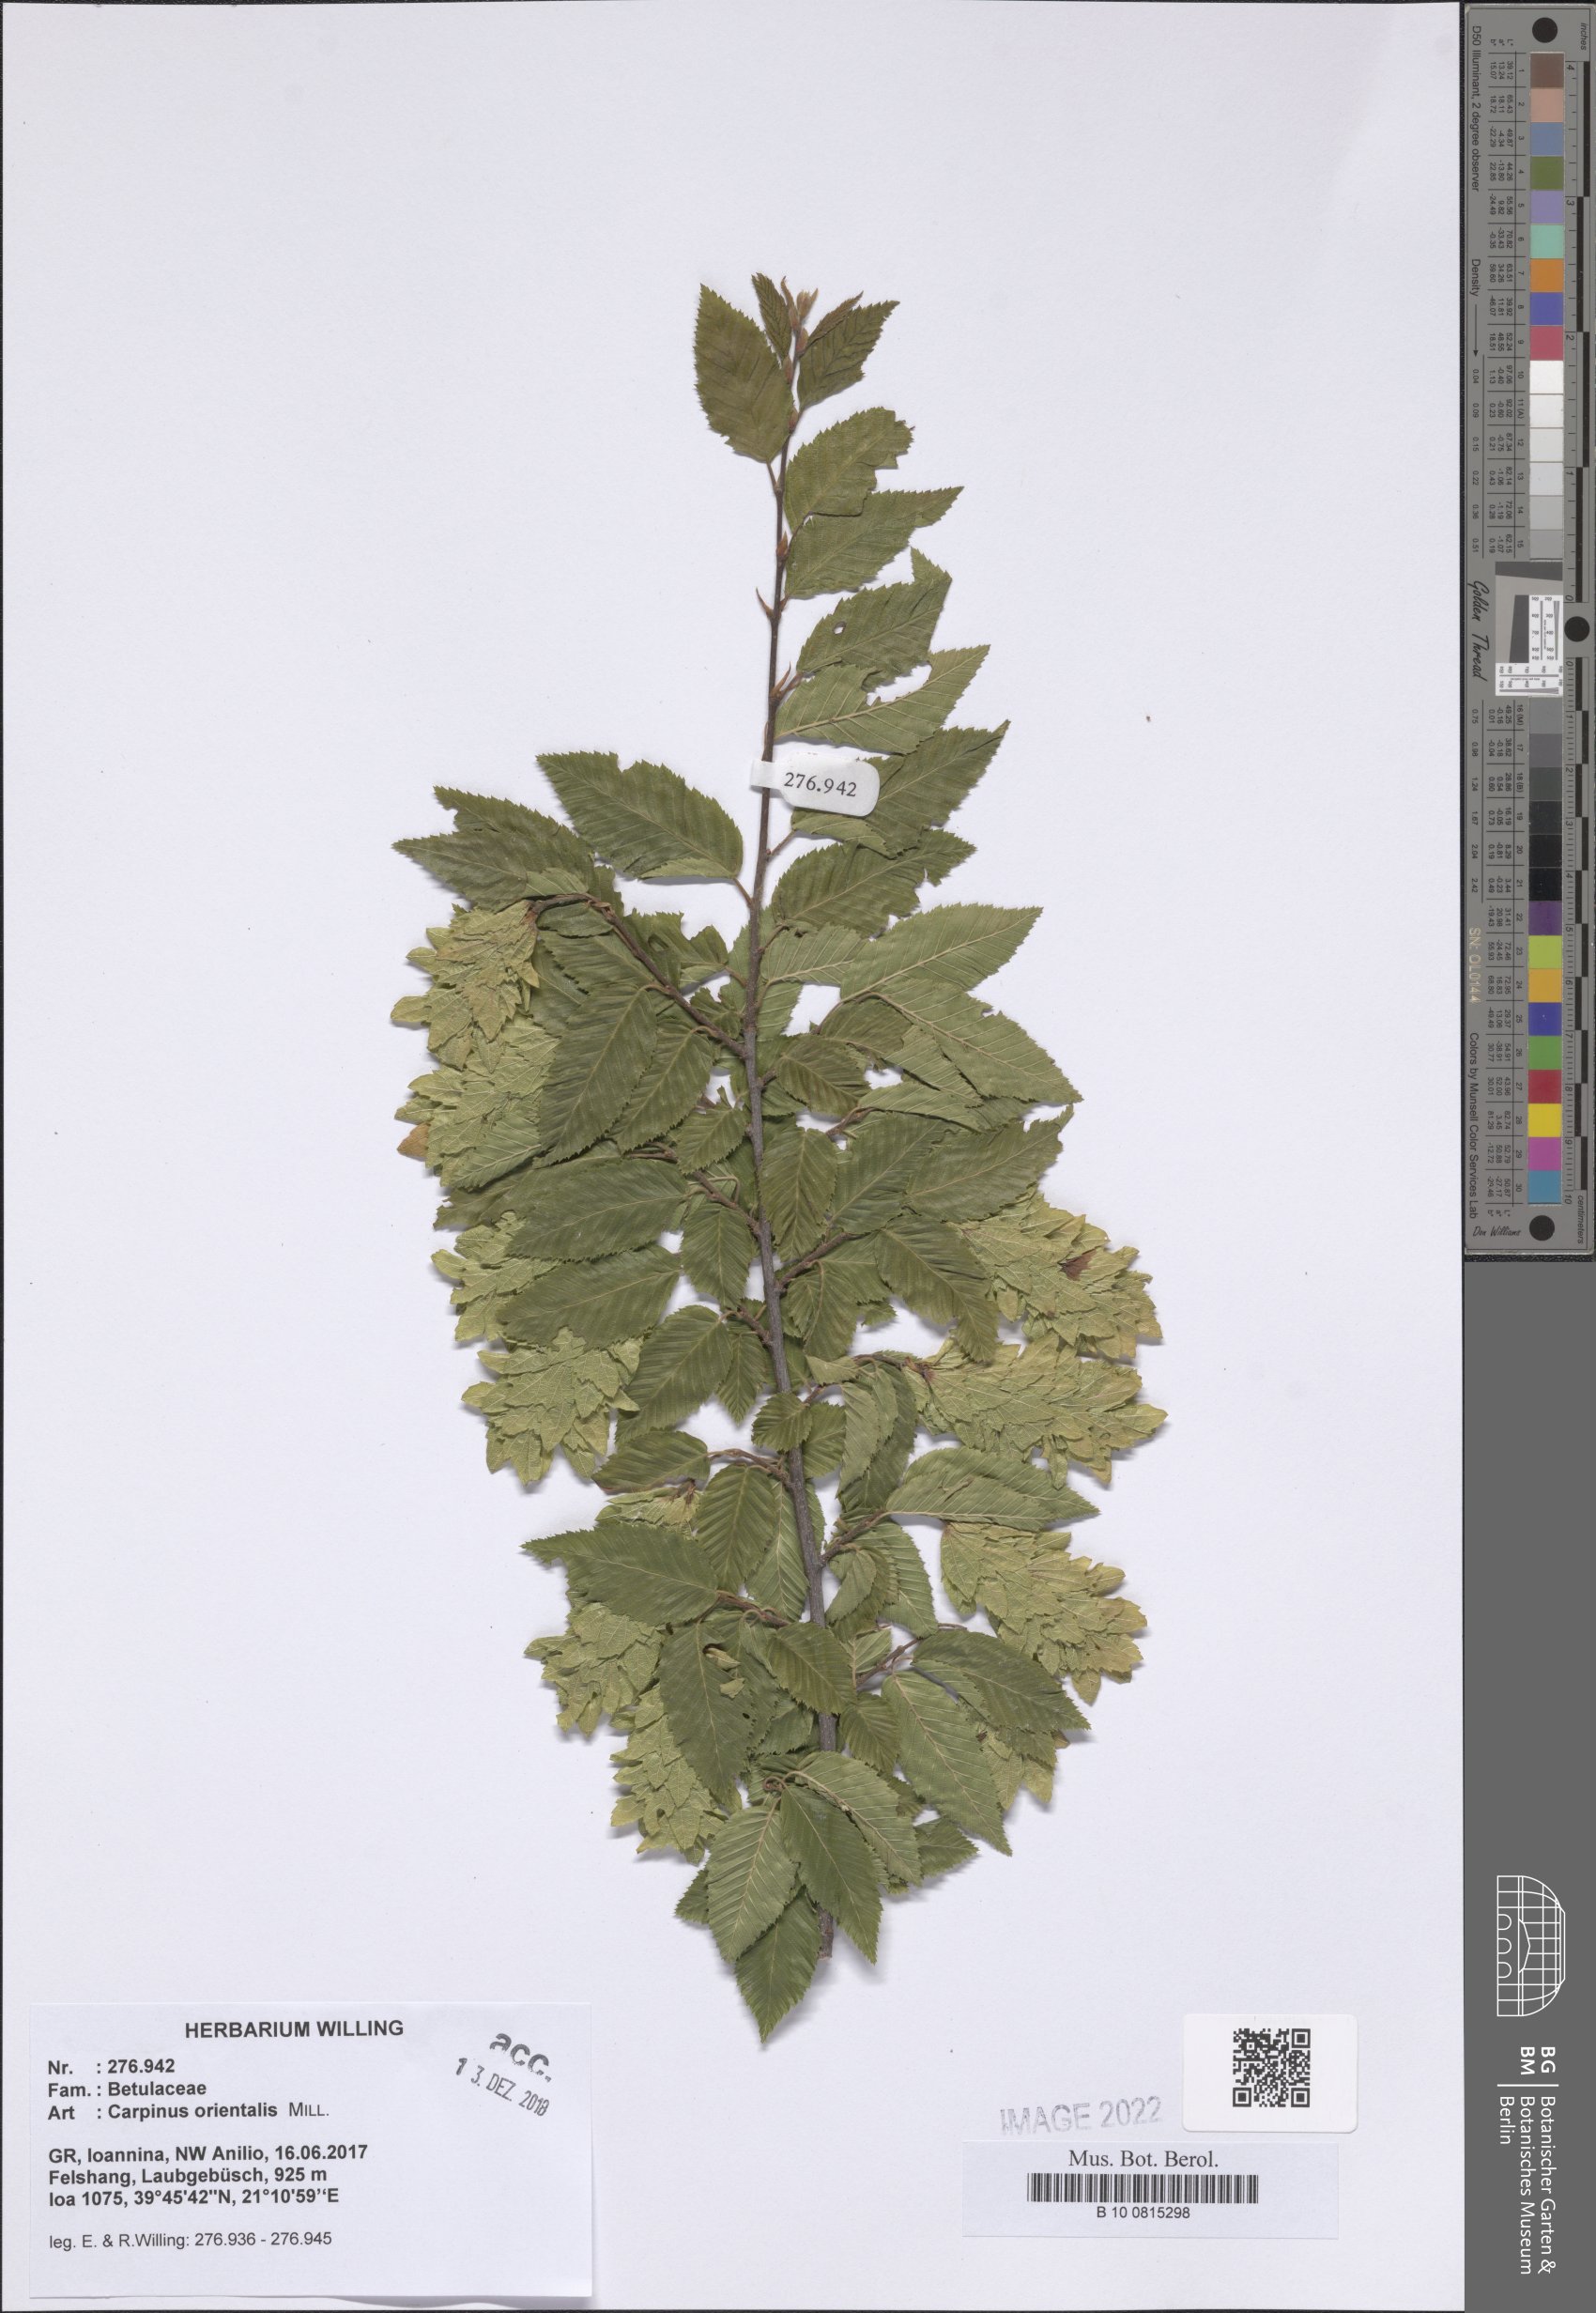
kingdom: Plantae
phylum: Tracheophyta
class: Magnoliopsida
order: Fagales
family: Betulaceae
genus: Carpinus
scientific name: Carpinus orientalis
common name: Eastern hornbeam
